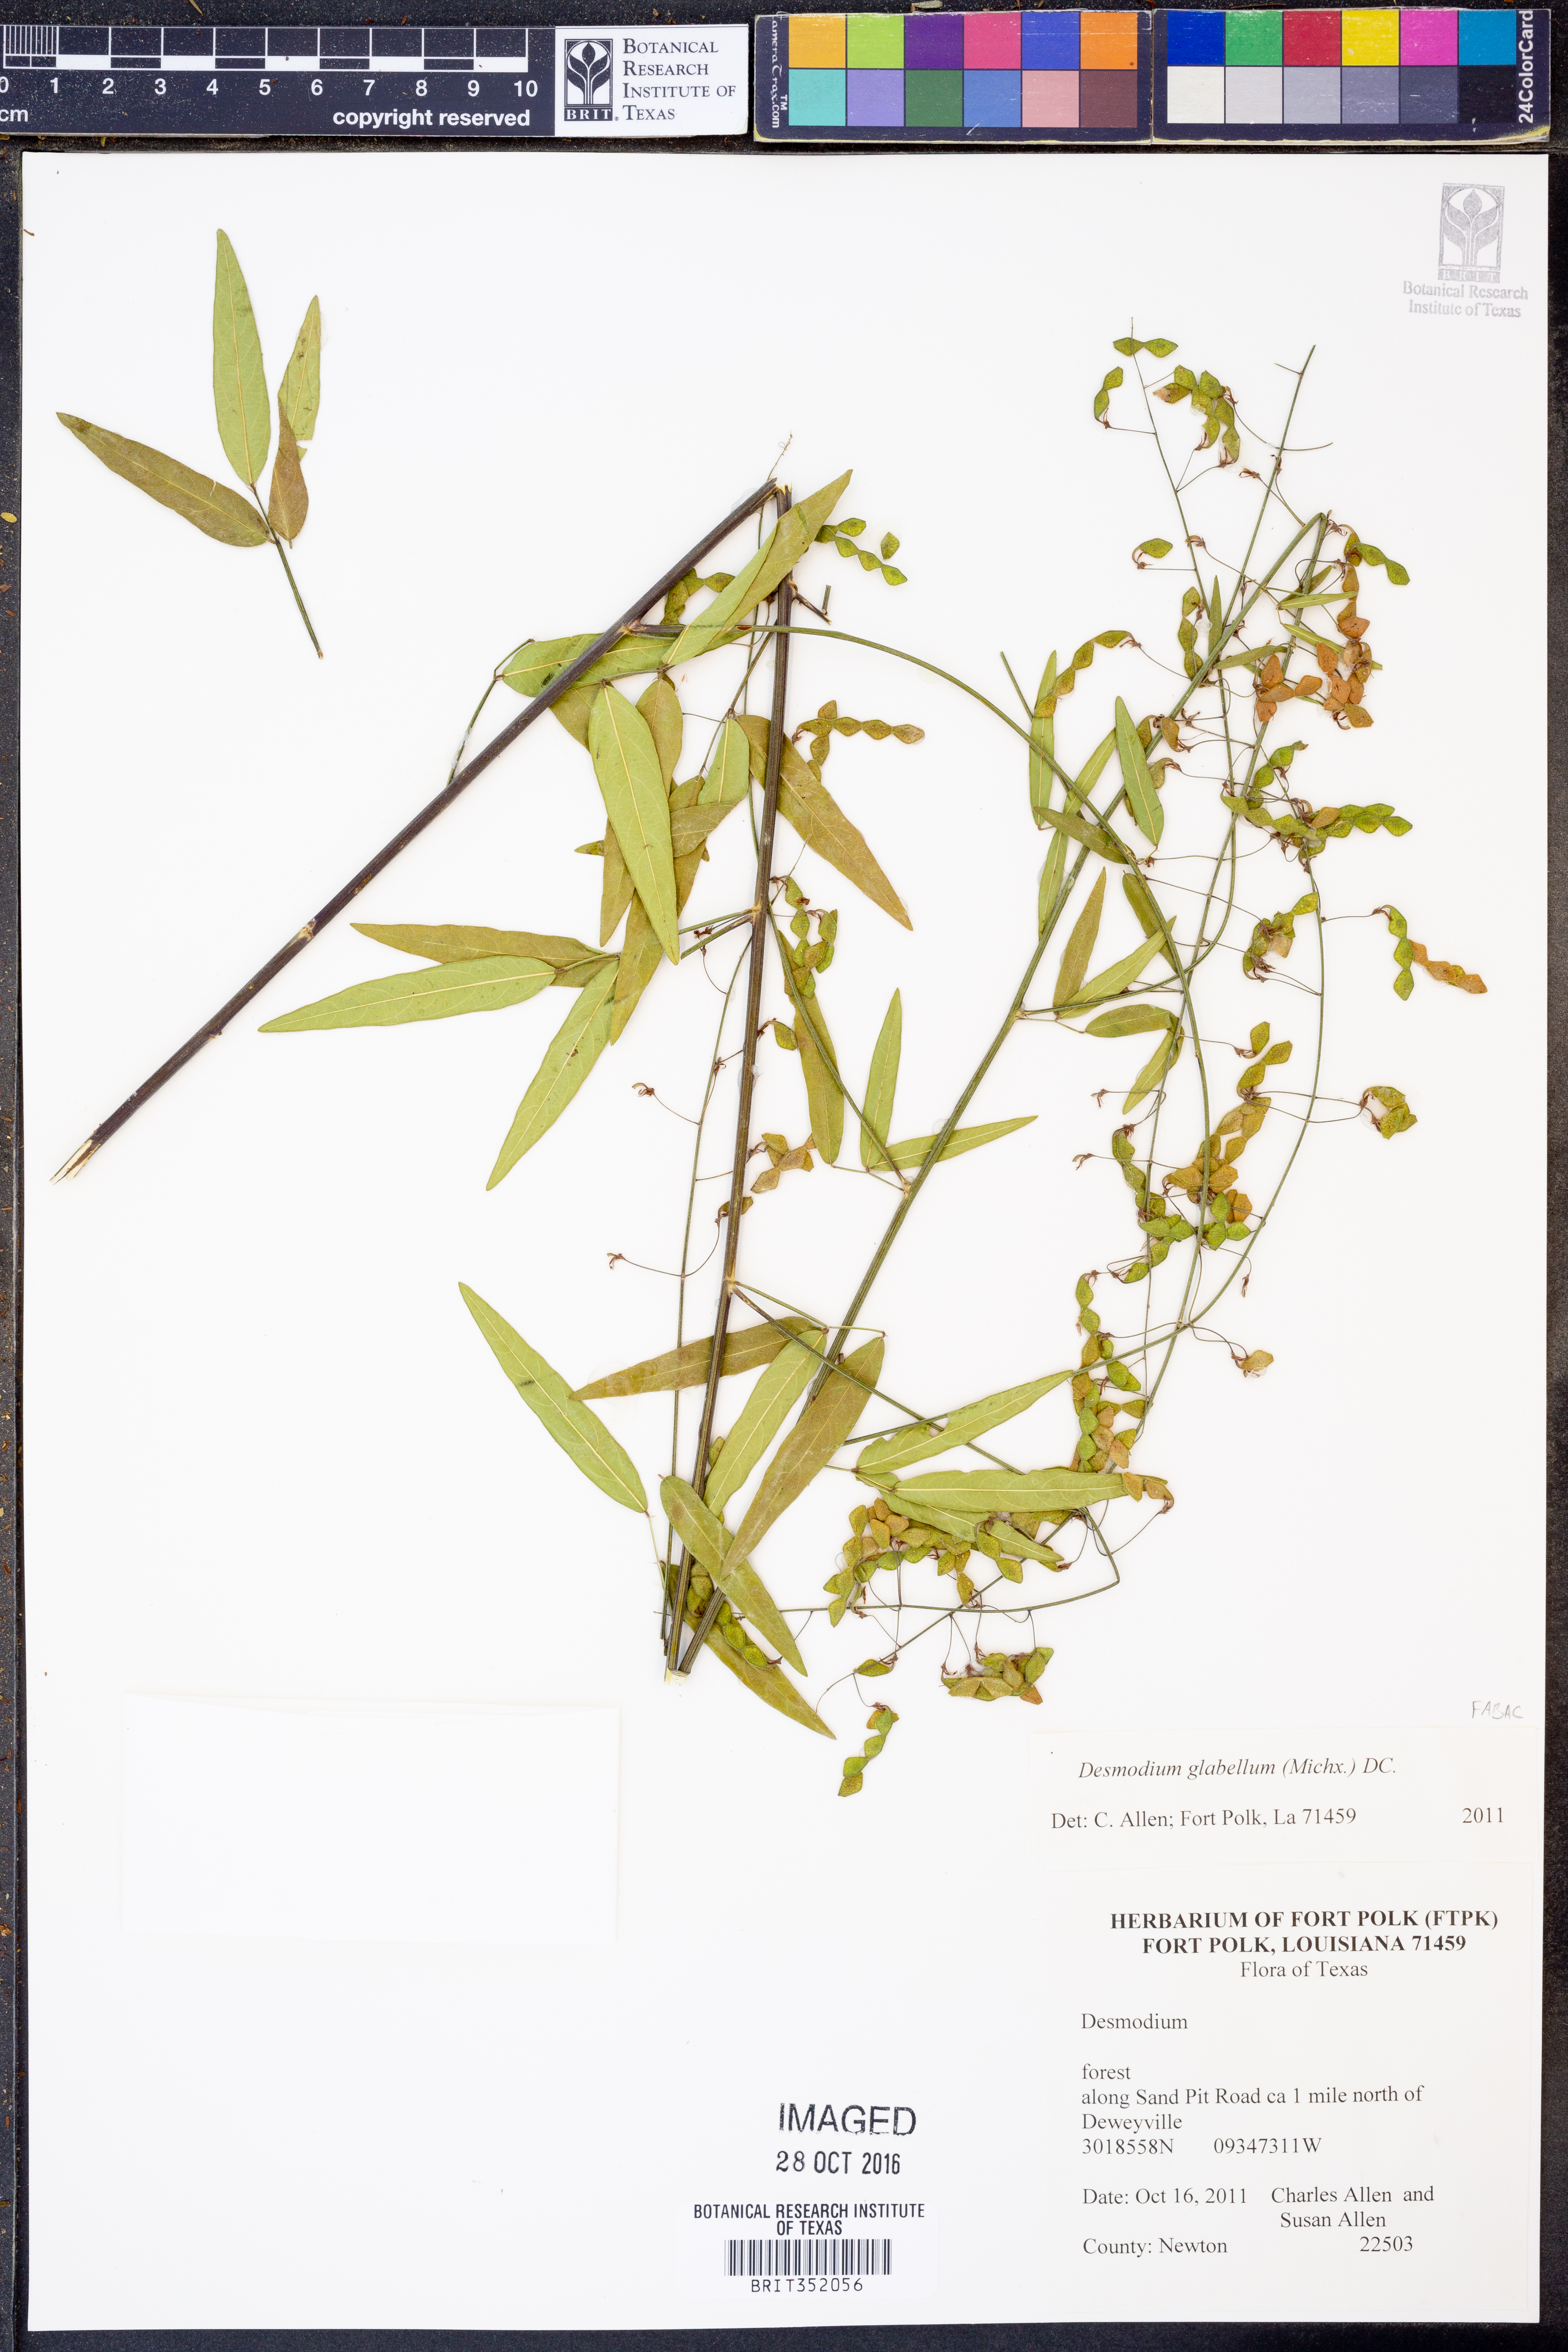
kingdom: Plantae
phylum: Tracheophyta
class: Magnoliopsida
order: Fabales
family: Fabaceae
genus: Desmodium
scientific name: Desmodium glabellum
